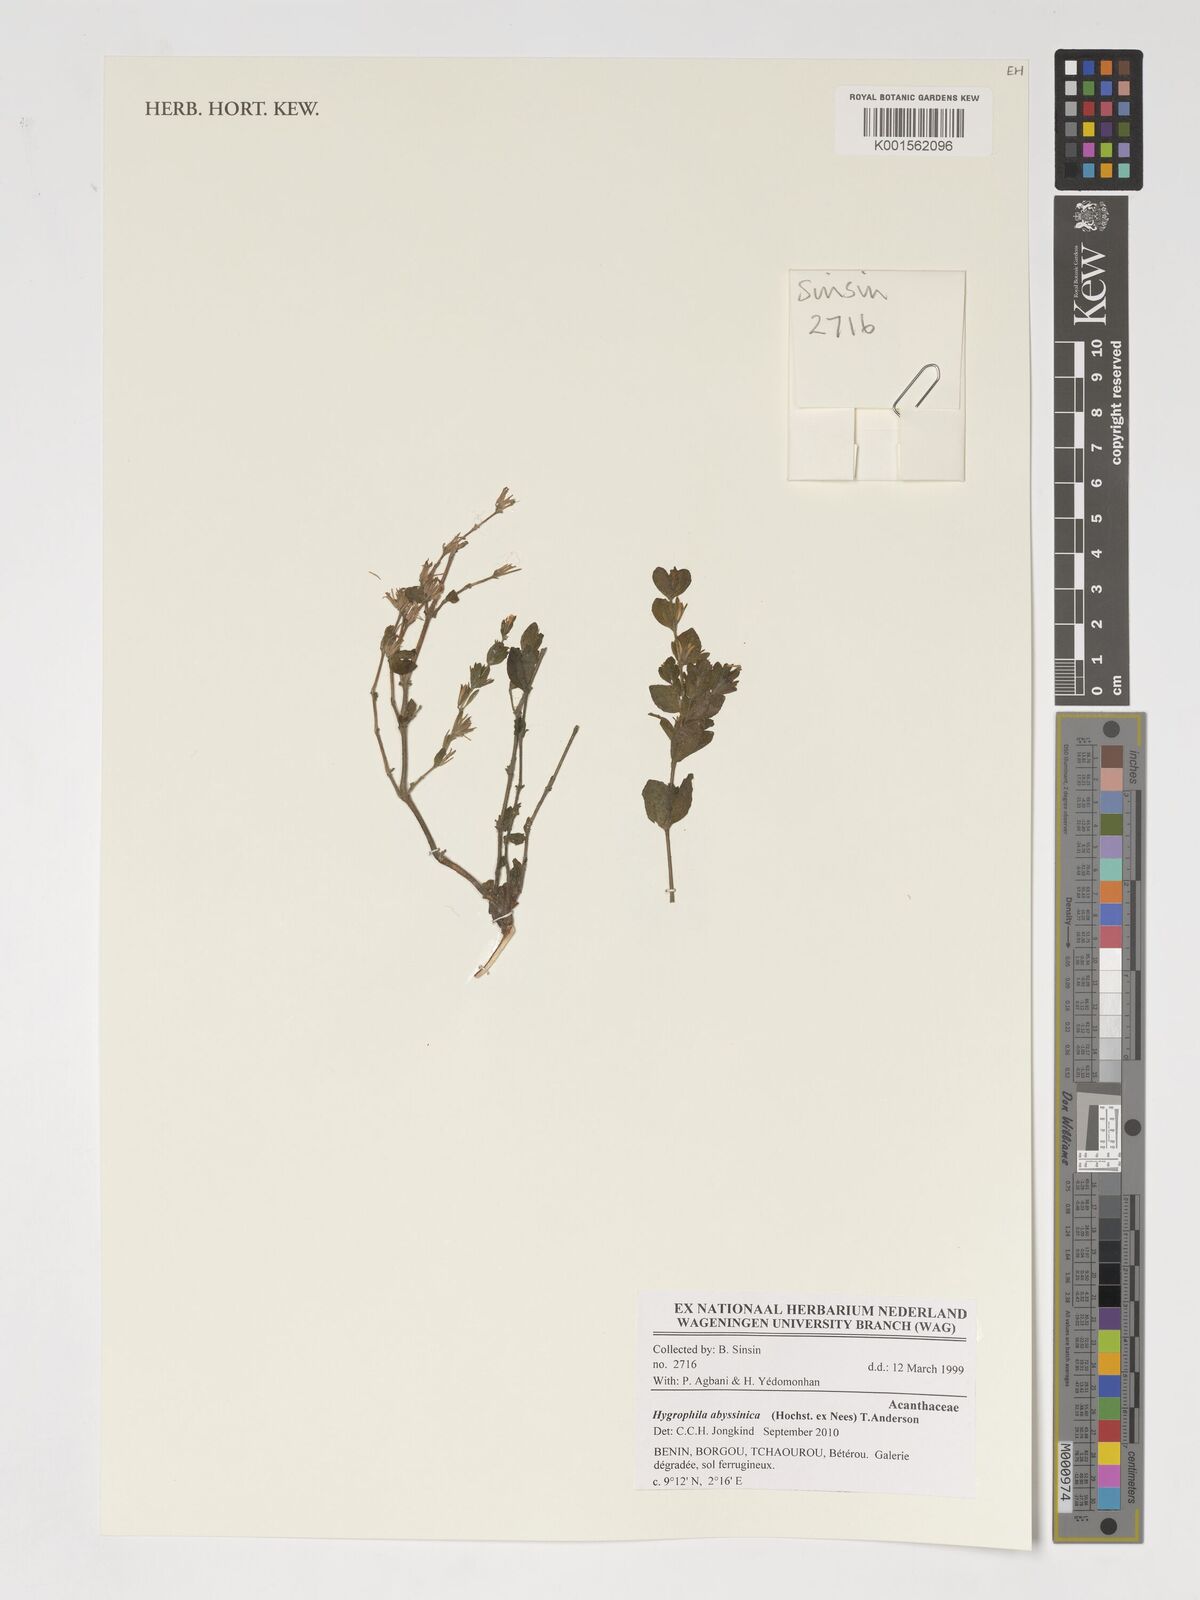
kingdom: Plantae
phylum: Tracheophyta
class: Magnoliopsida
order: Lamiales
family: Acanthaceae
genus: Hygrophila
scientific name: Hygrophila abyssinica
